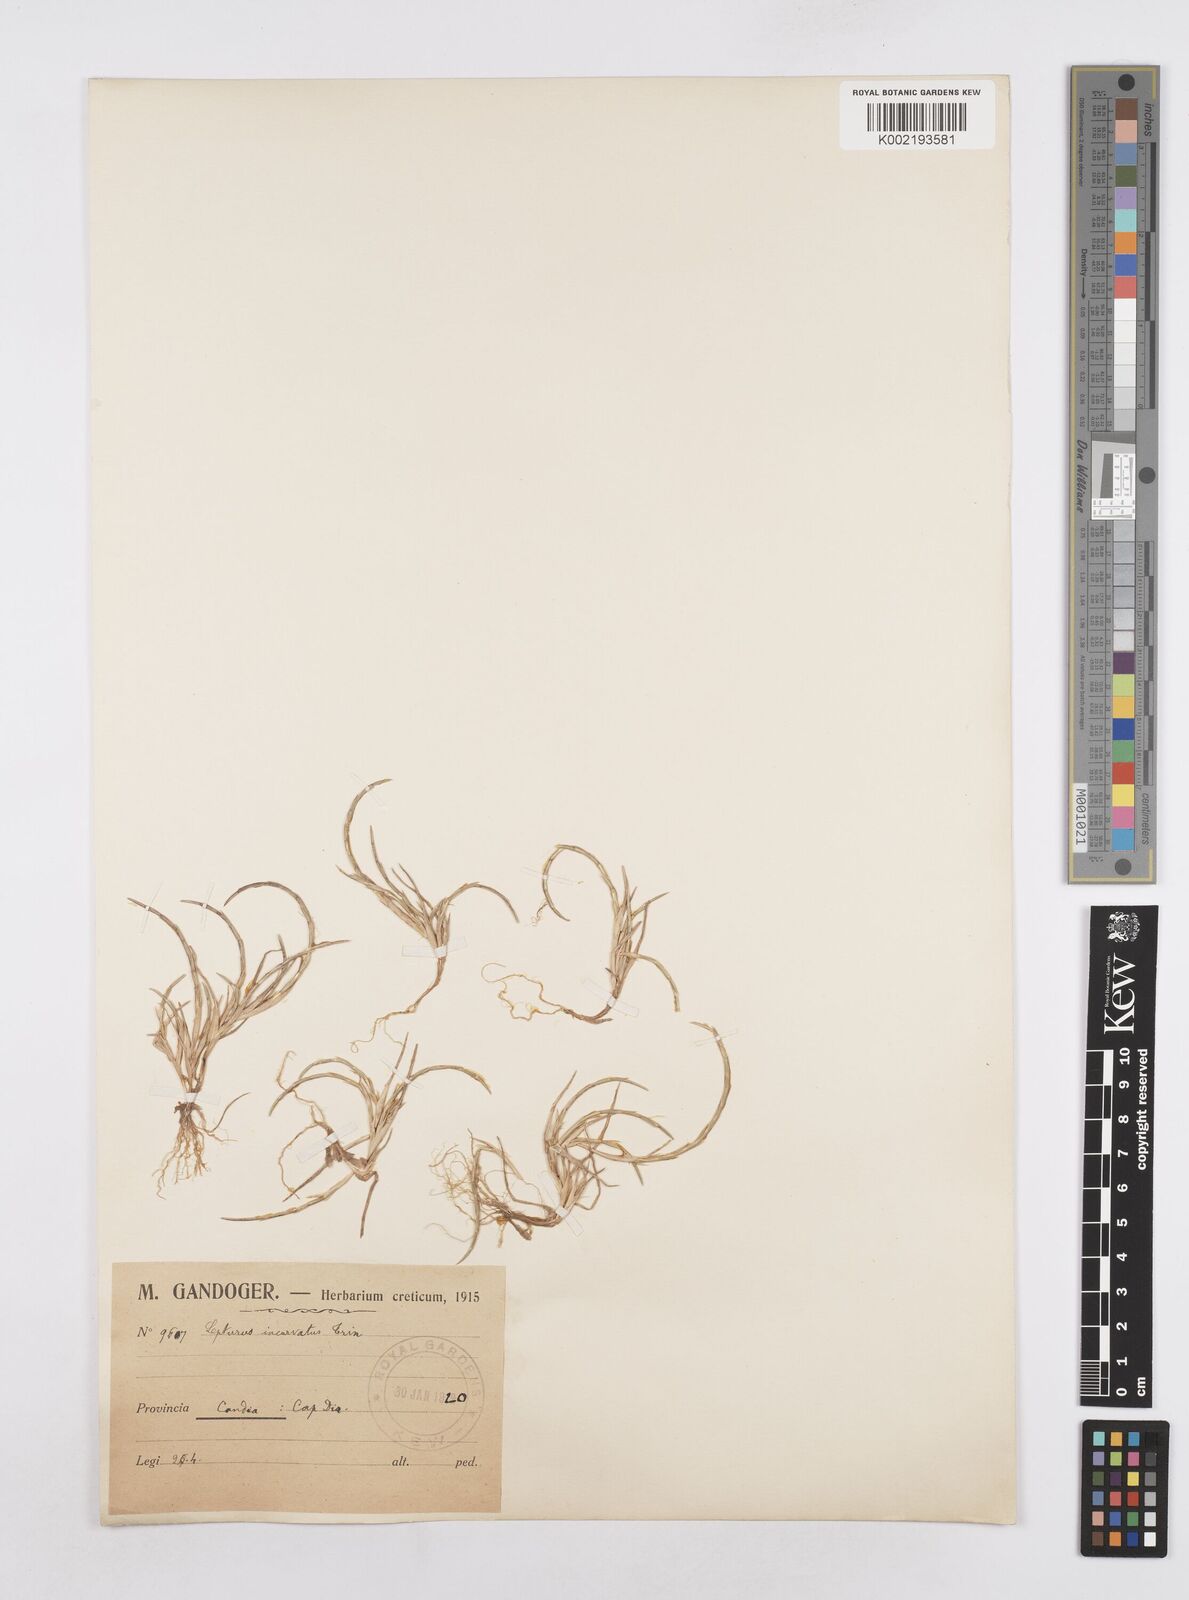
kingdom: Plantae
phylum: Tracheophyta
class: Liliopsida
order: Poales
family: Poaceae
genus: Parapholis
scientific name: Parapholis incurva
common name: Curved sicklegrass
